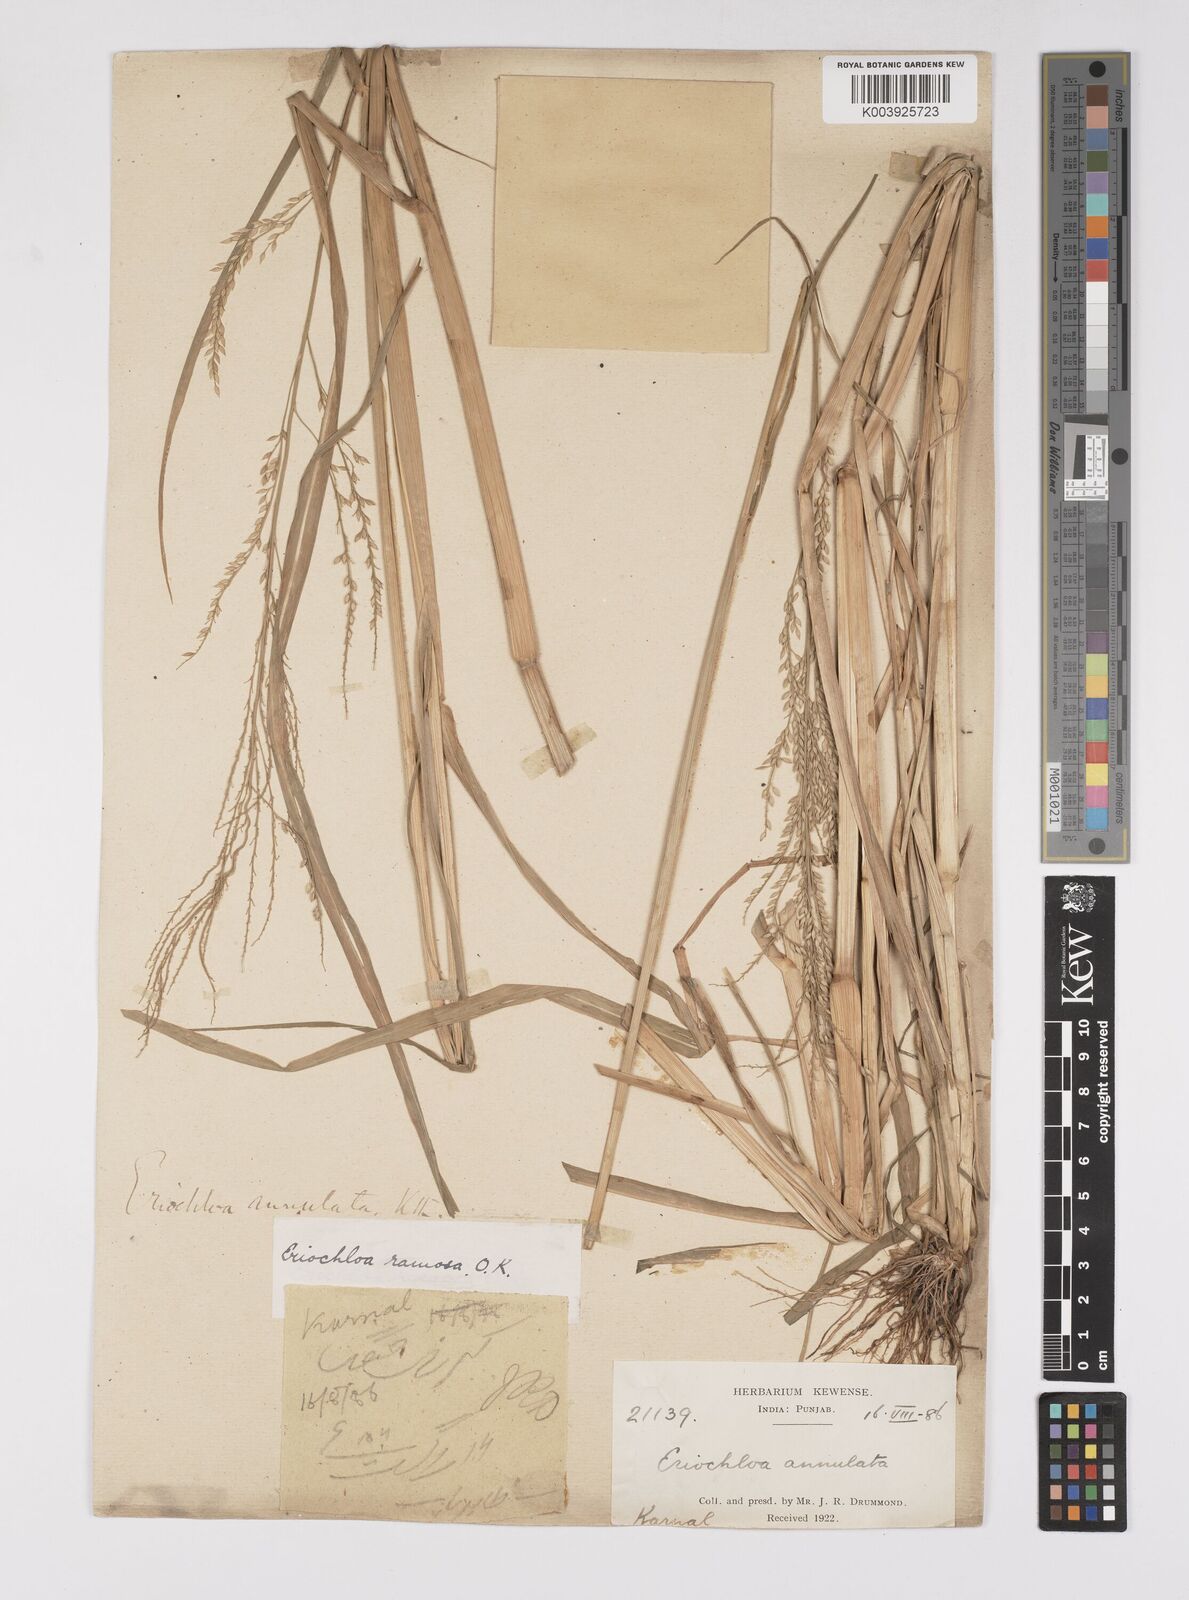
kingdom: Plantae
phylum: Tracheophyta
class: Liliopsida
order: Poales
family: Poaceae
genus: Eriochloa
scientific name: Eriochloa procera
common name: Spring grass
